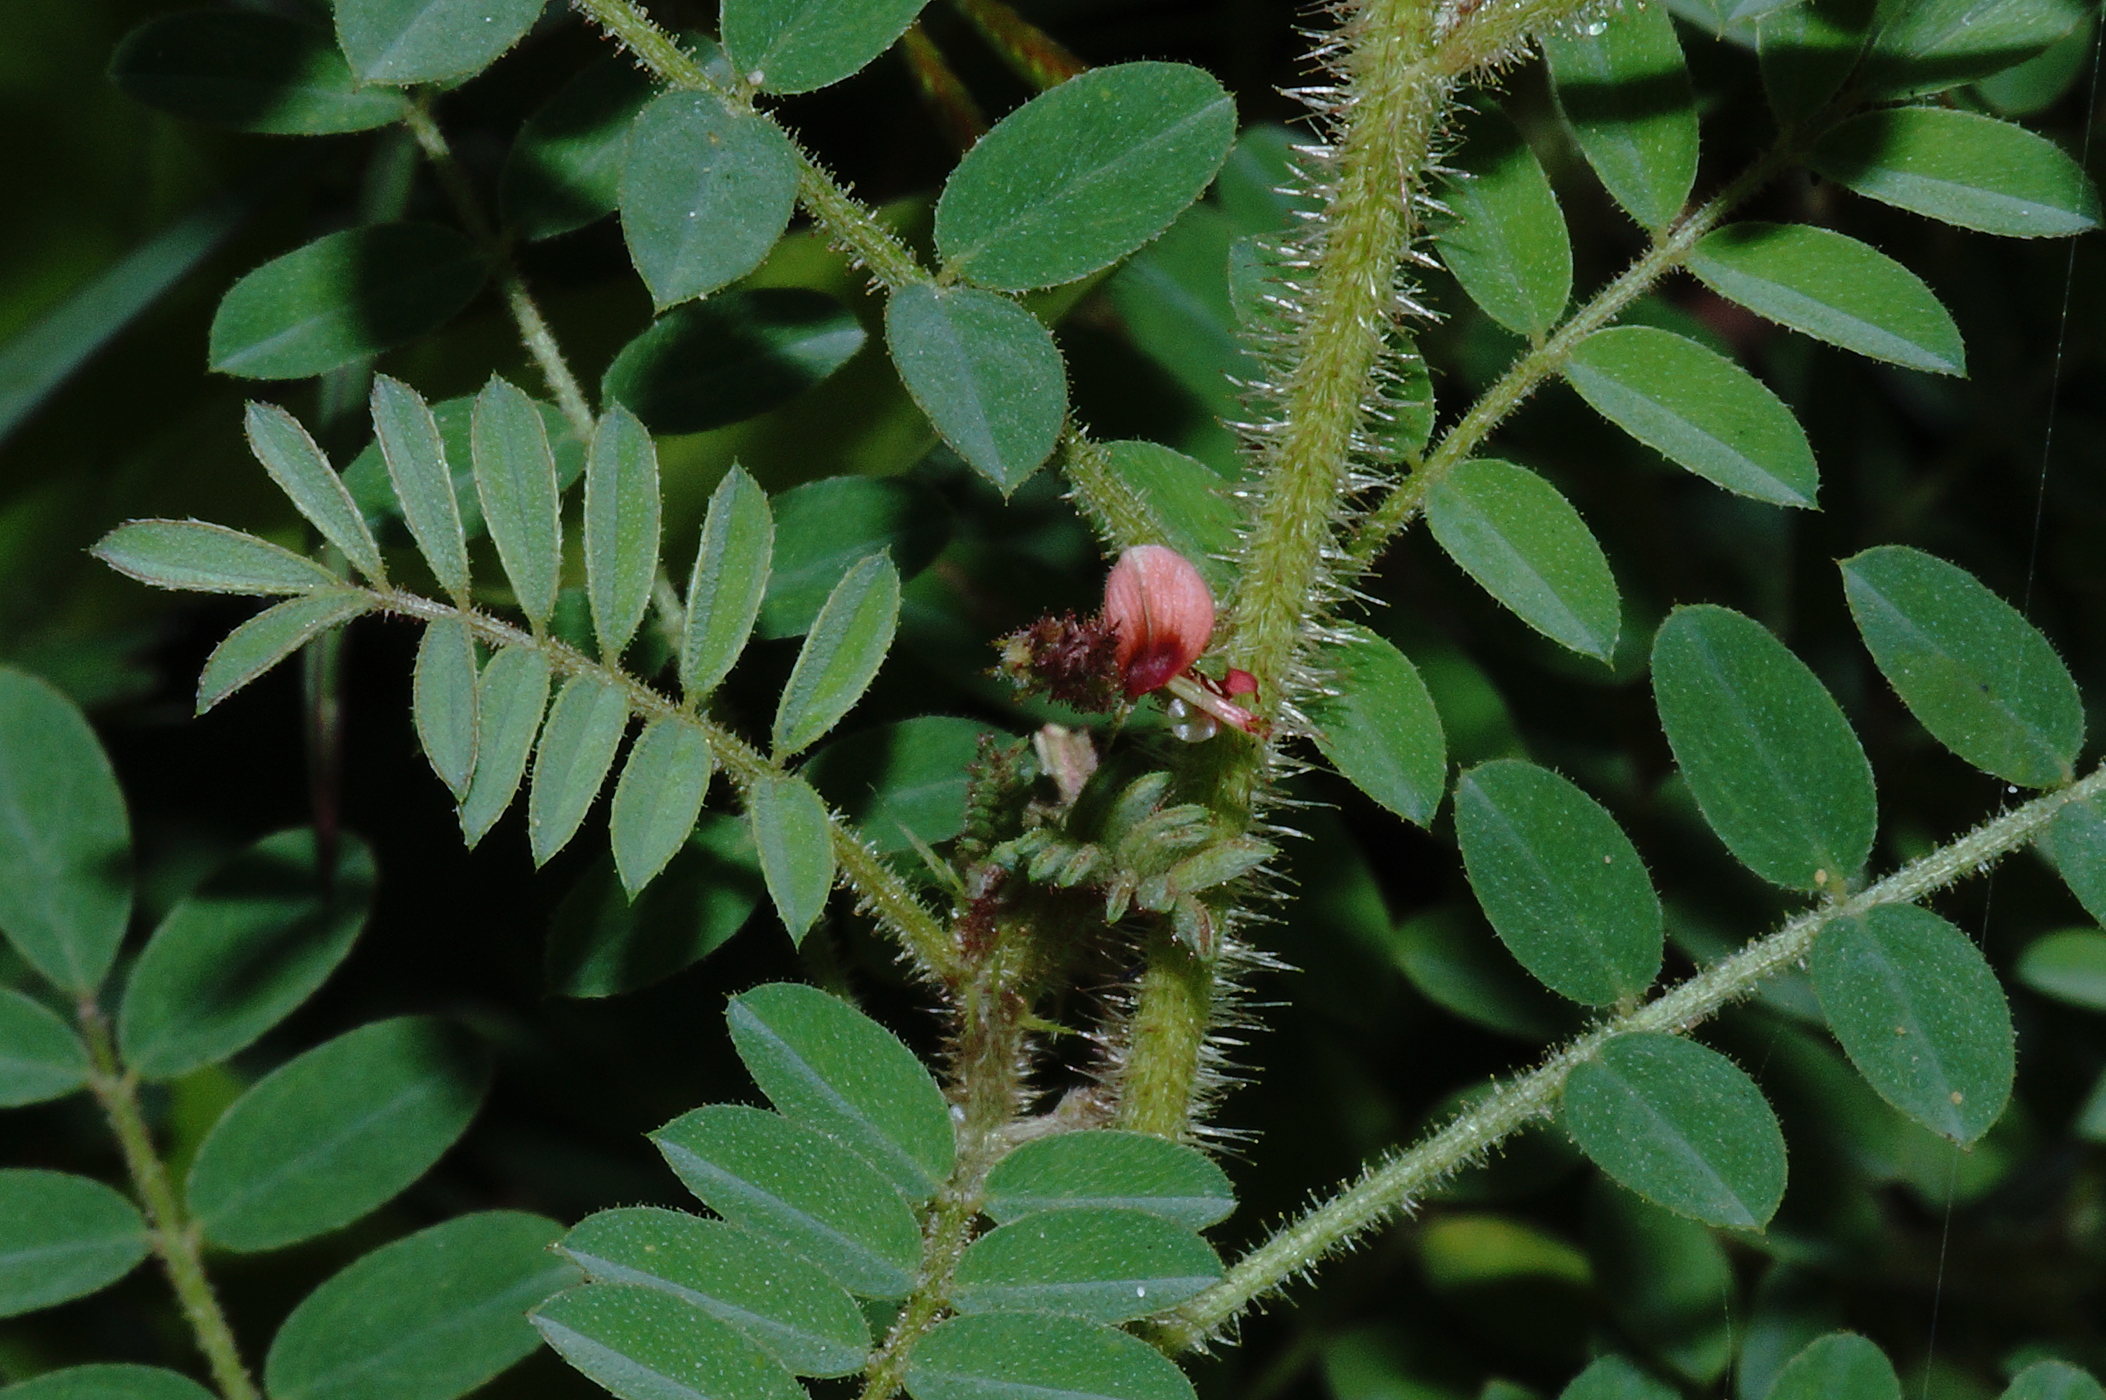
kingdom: Plantae
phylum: Tracheophyta
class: Magnoliopsida
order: Fabales
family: Fabaceae
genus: Indigofera
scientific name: Indigofera colutea
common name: Rusty indigo
